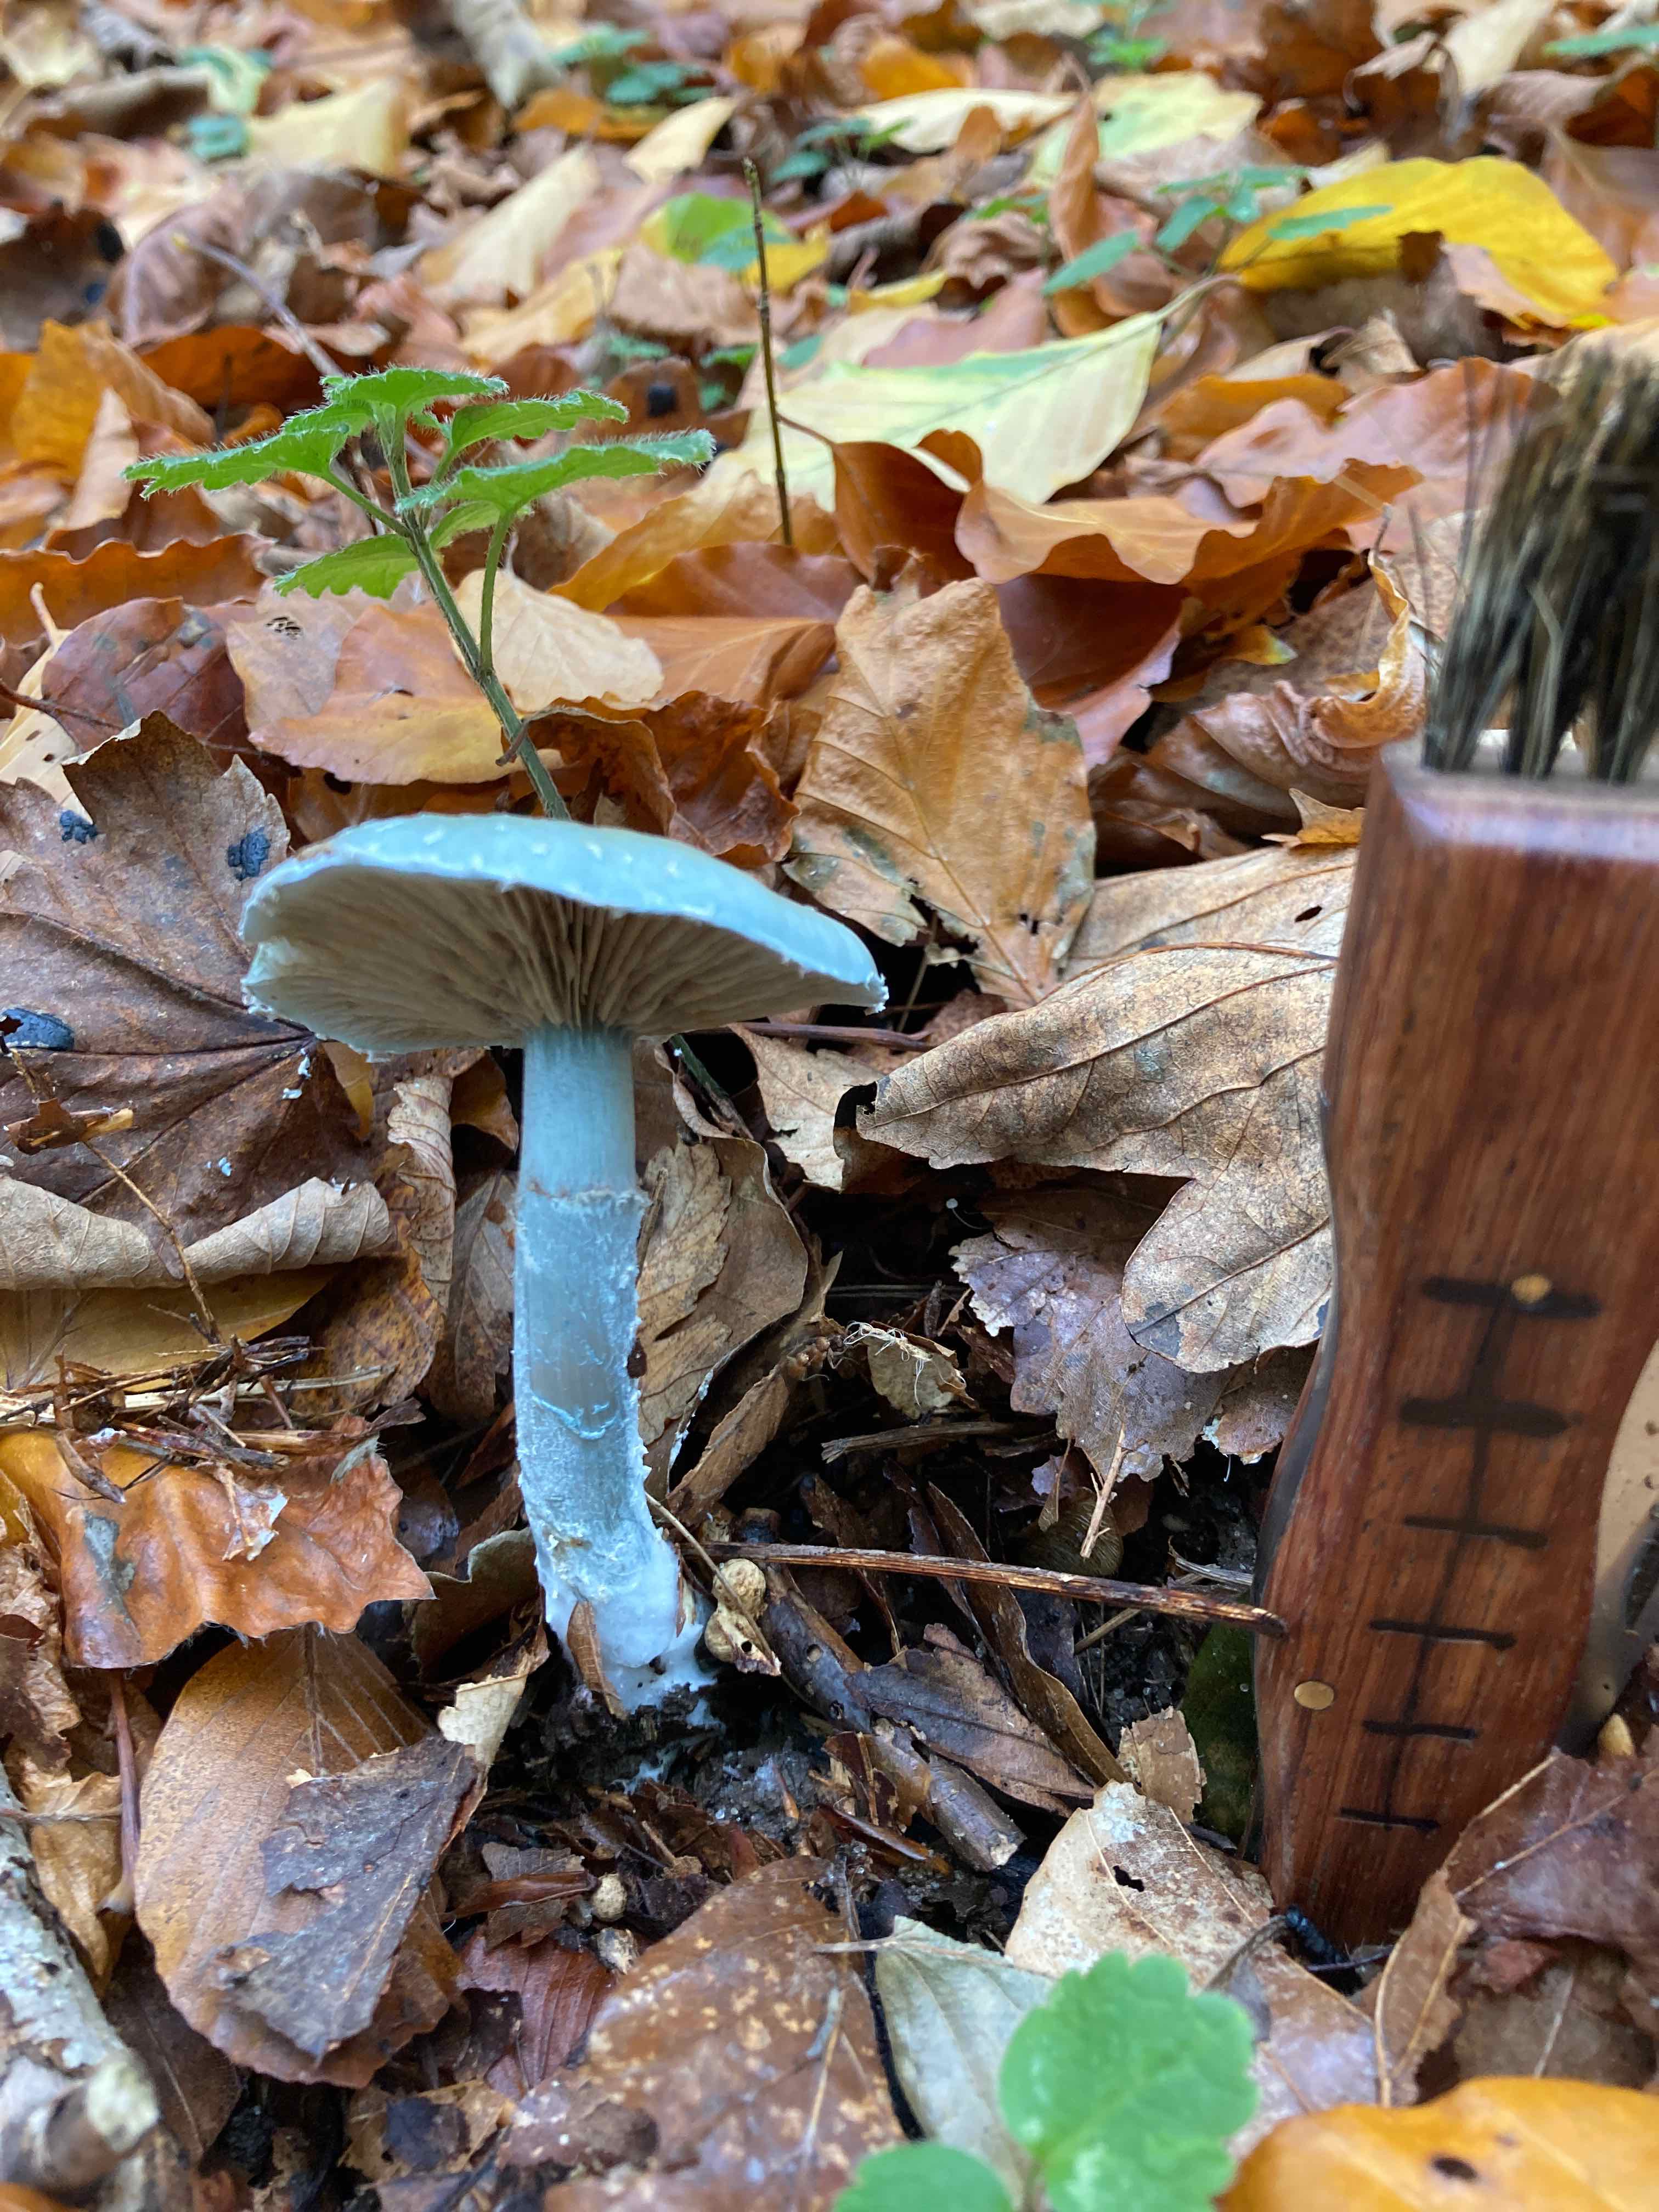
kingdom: Fungi
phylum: Basidiomycota
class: Agaricomycetes
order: Agaricales
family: Strophariaceae
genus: Stropharia
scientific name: Stropharia cyanea
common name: blågrøn bredblad
